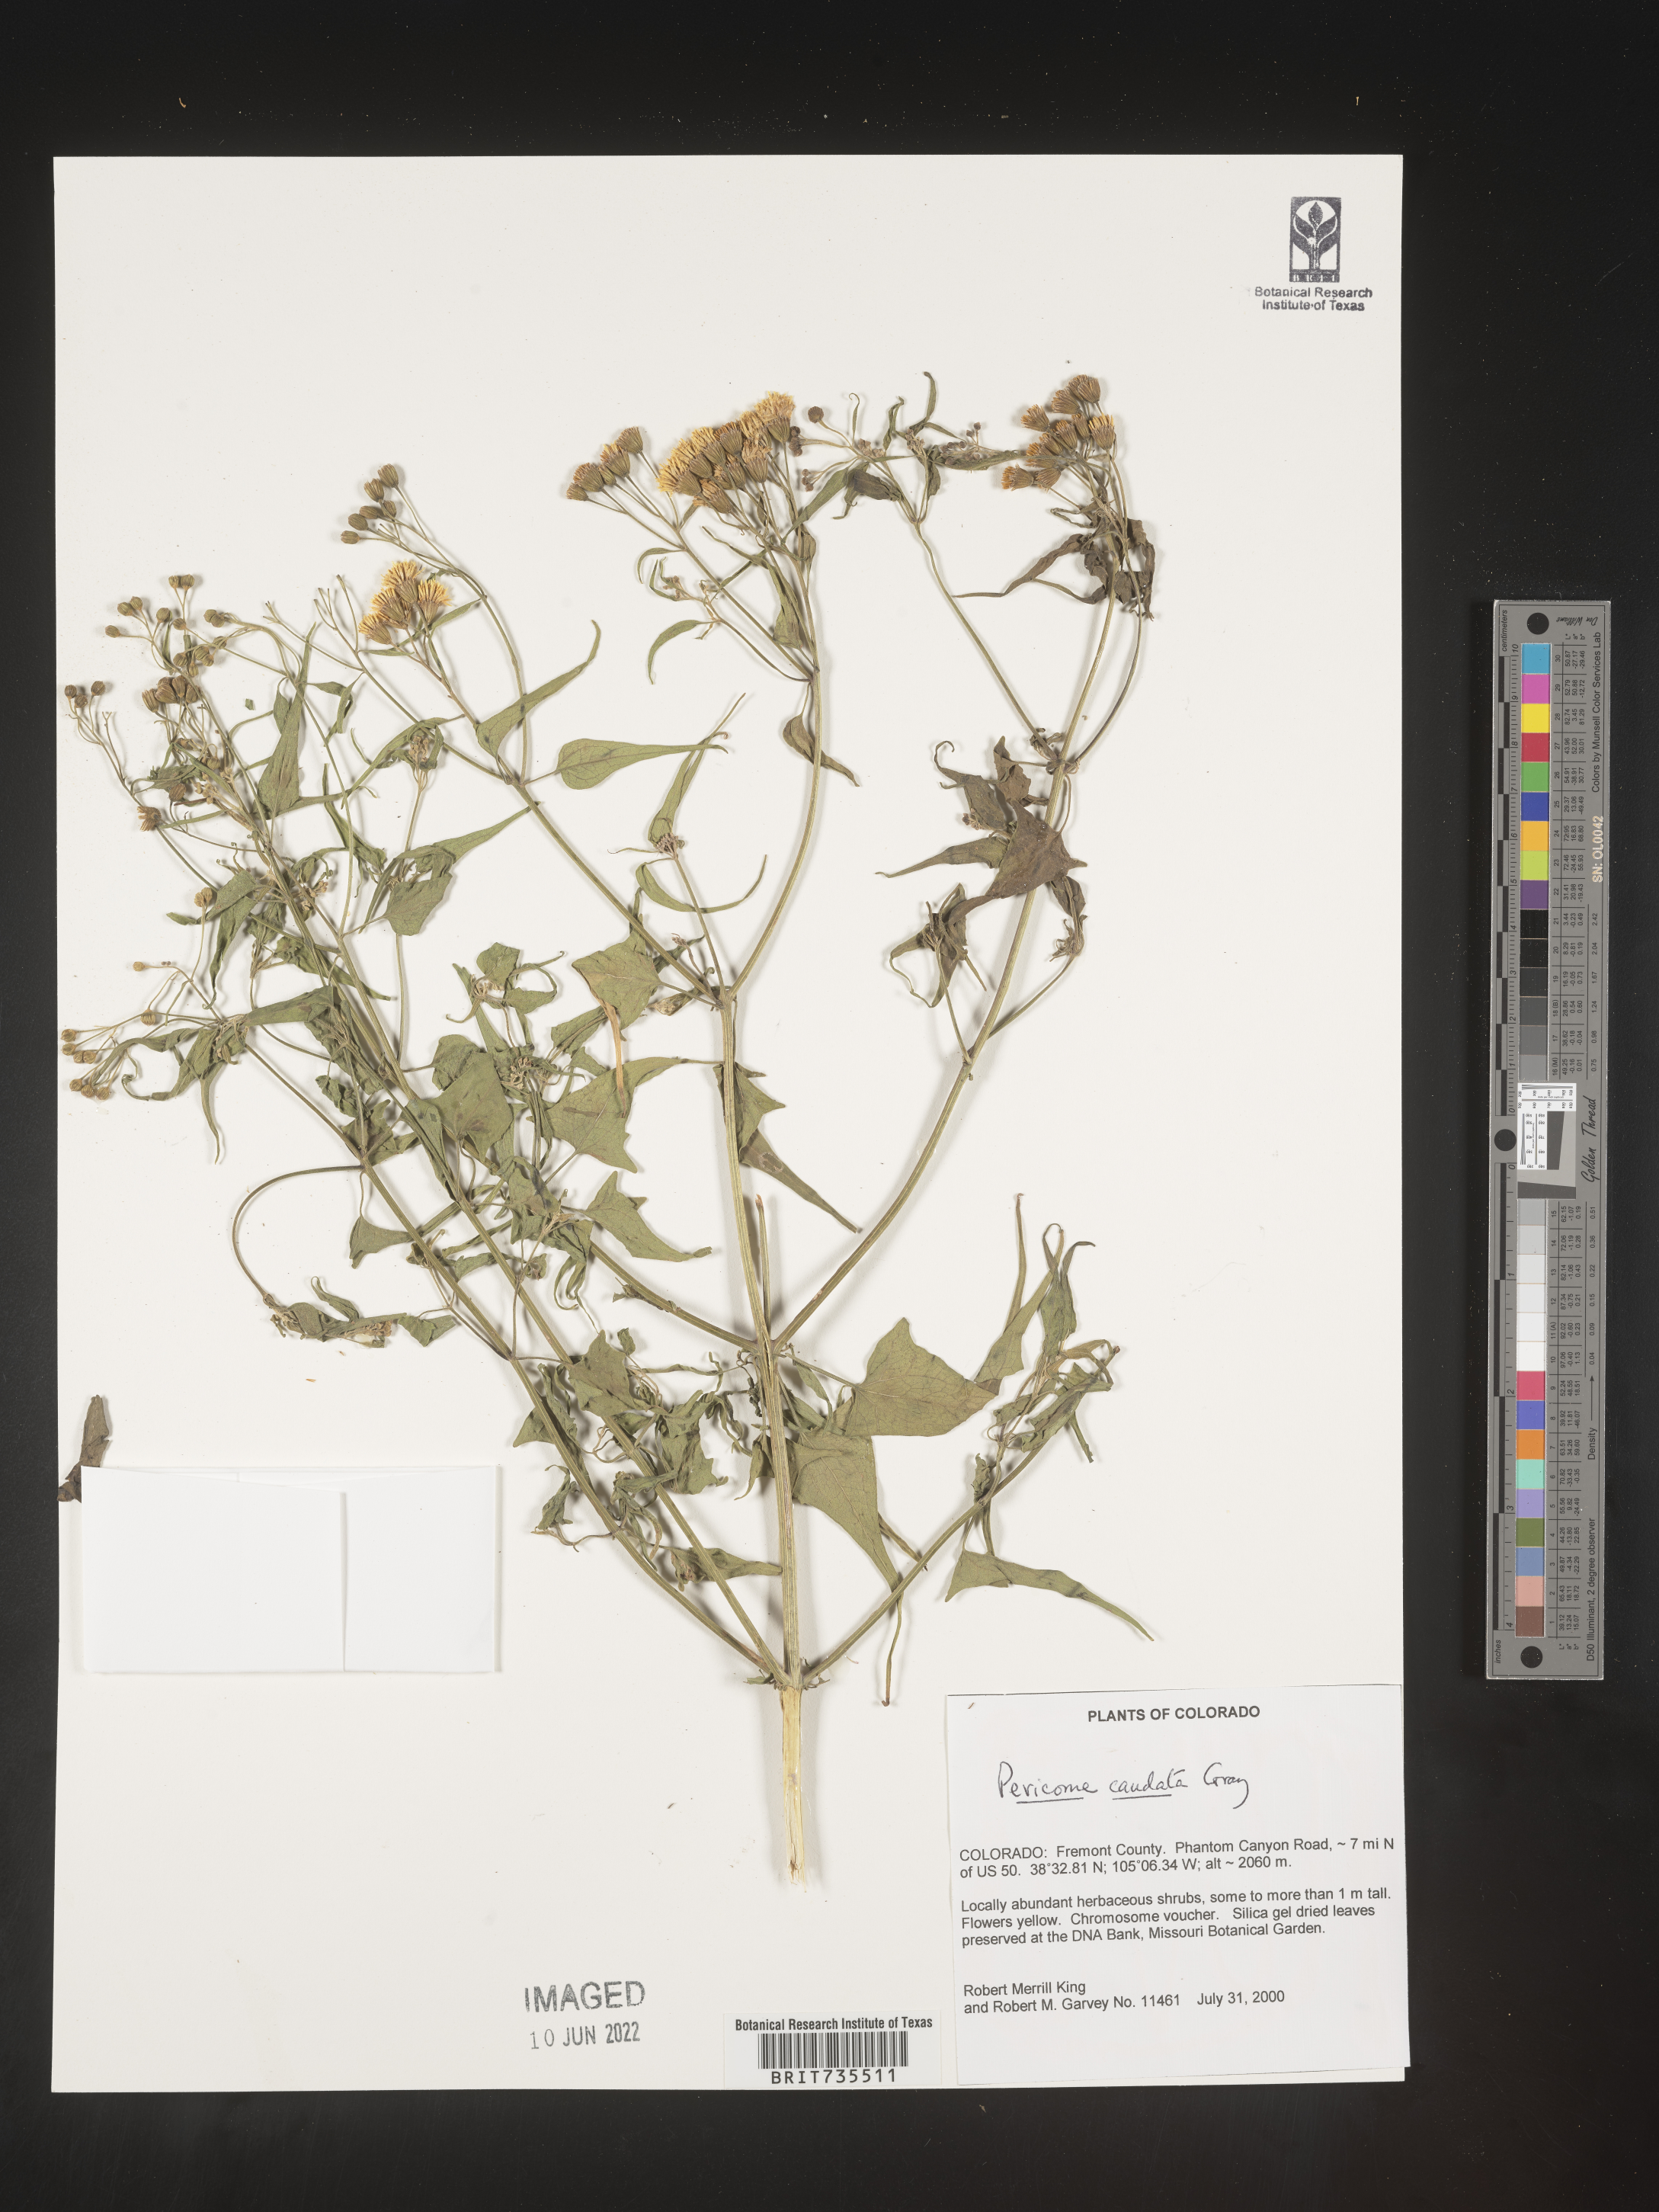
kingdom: Plantae
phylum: Tracheophyta
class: Magnoliopsida
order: Asterales
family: Asteraceae
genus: Pericome
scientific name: Pericome
